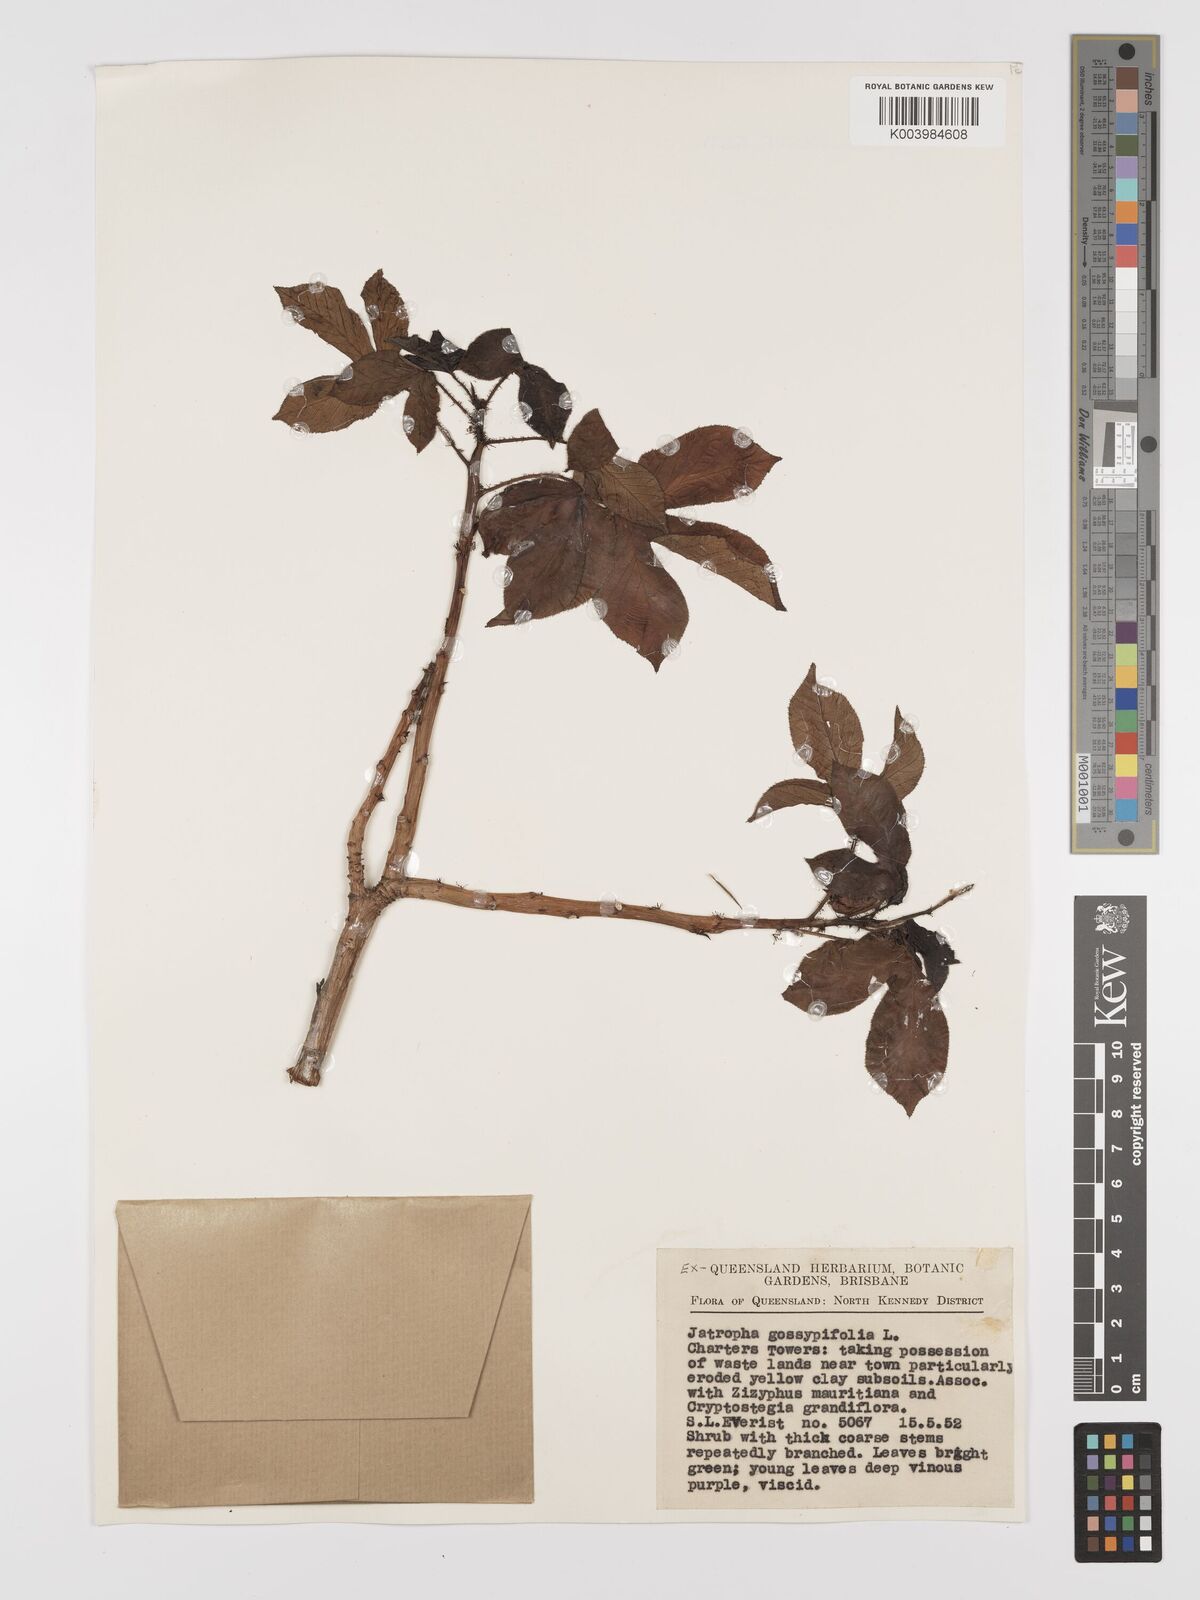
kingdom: Plantae
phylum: Tracheophyta
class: Magnoliopsida
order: Malpighiales
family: Euphorbiaceae
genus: Jatropha
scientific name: Jatropha gossypiifolia
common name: Bellyache bush
